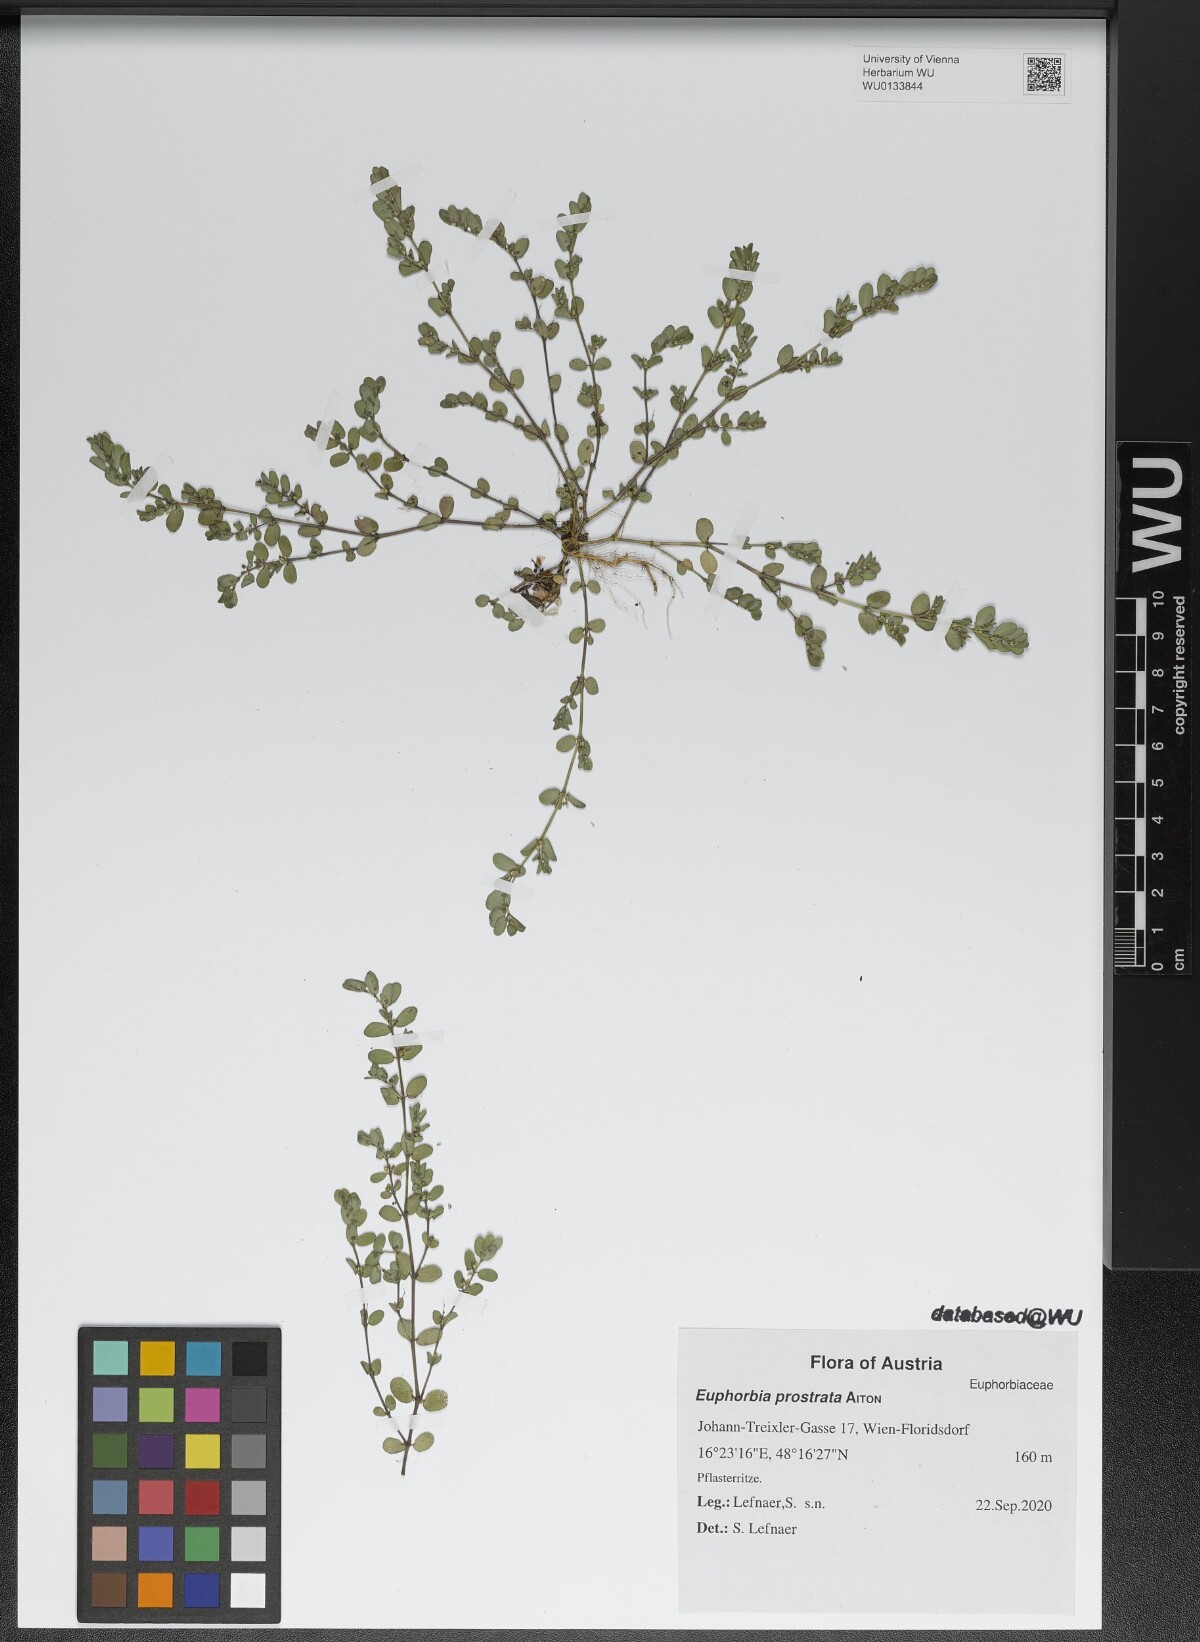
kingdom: Plantae
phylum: Tracheophyta
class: Magnoliopsida
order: Malpighiales
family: Euphorbiaceae
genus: Euphorbia
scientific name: Euphorbia prostrata
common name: Prostrate sandmat
